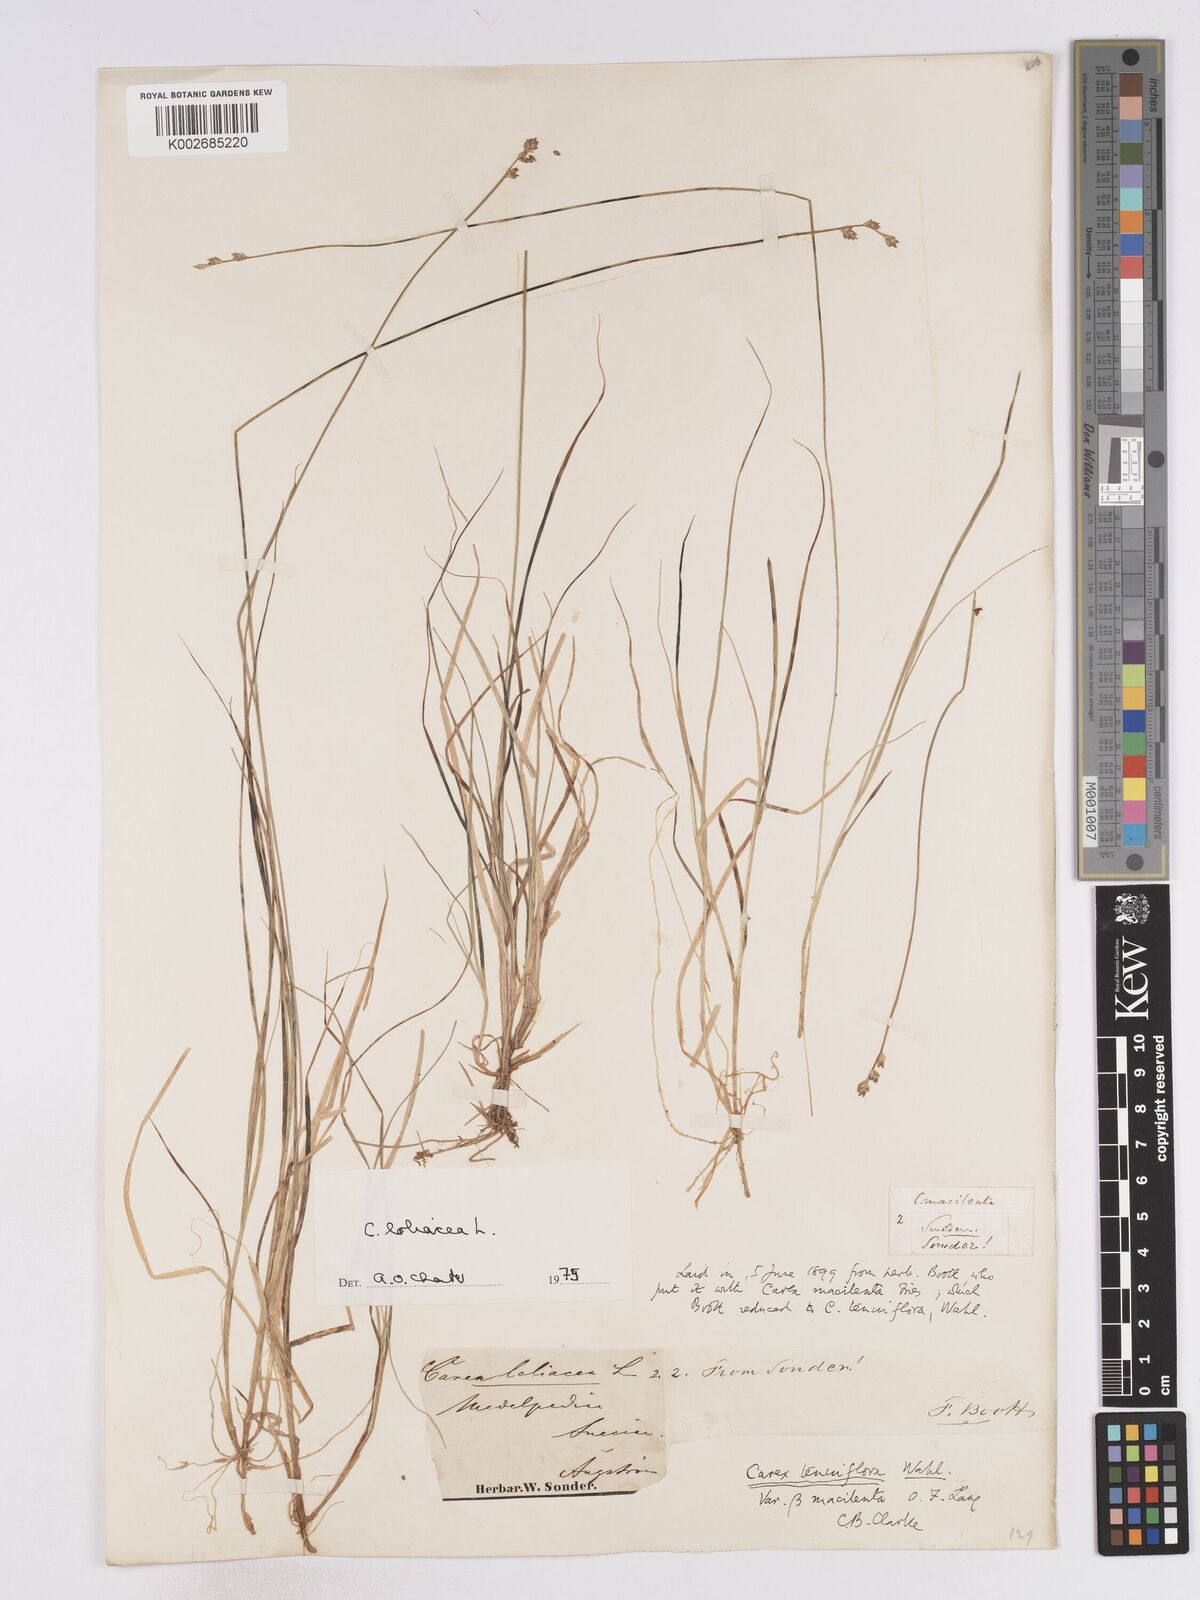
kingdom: Plantae
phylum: Tracheophyta
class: Liliopsida
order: Poales
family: Cyperaceae
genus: Carex
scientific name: Carex loliacea
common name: Ryegrass sedge
